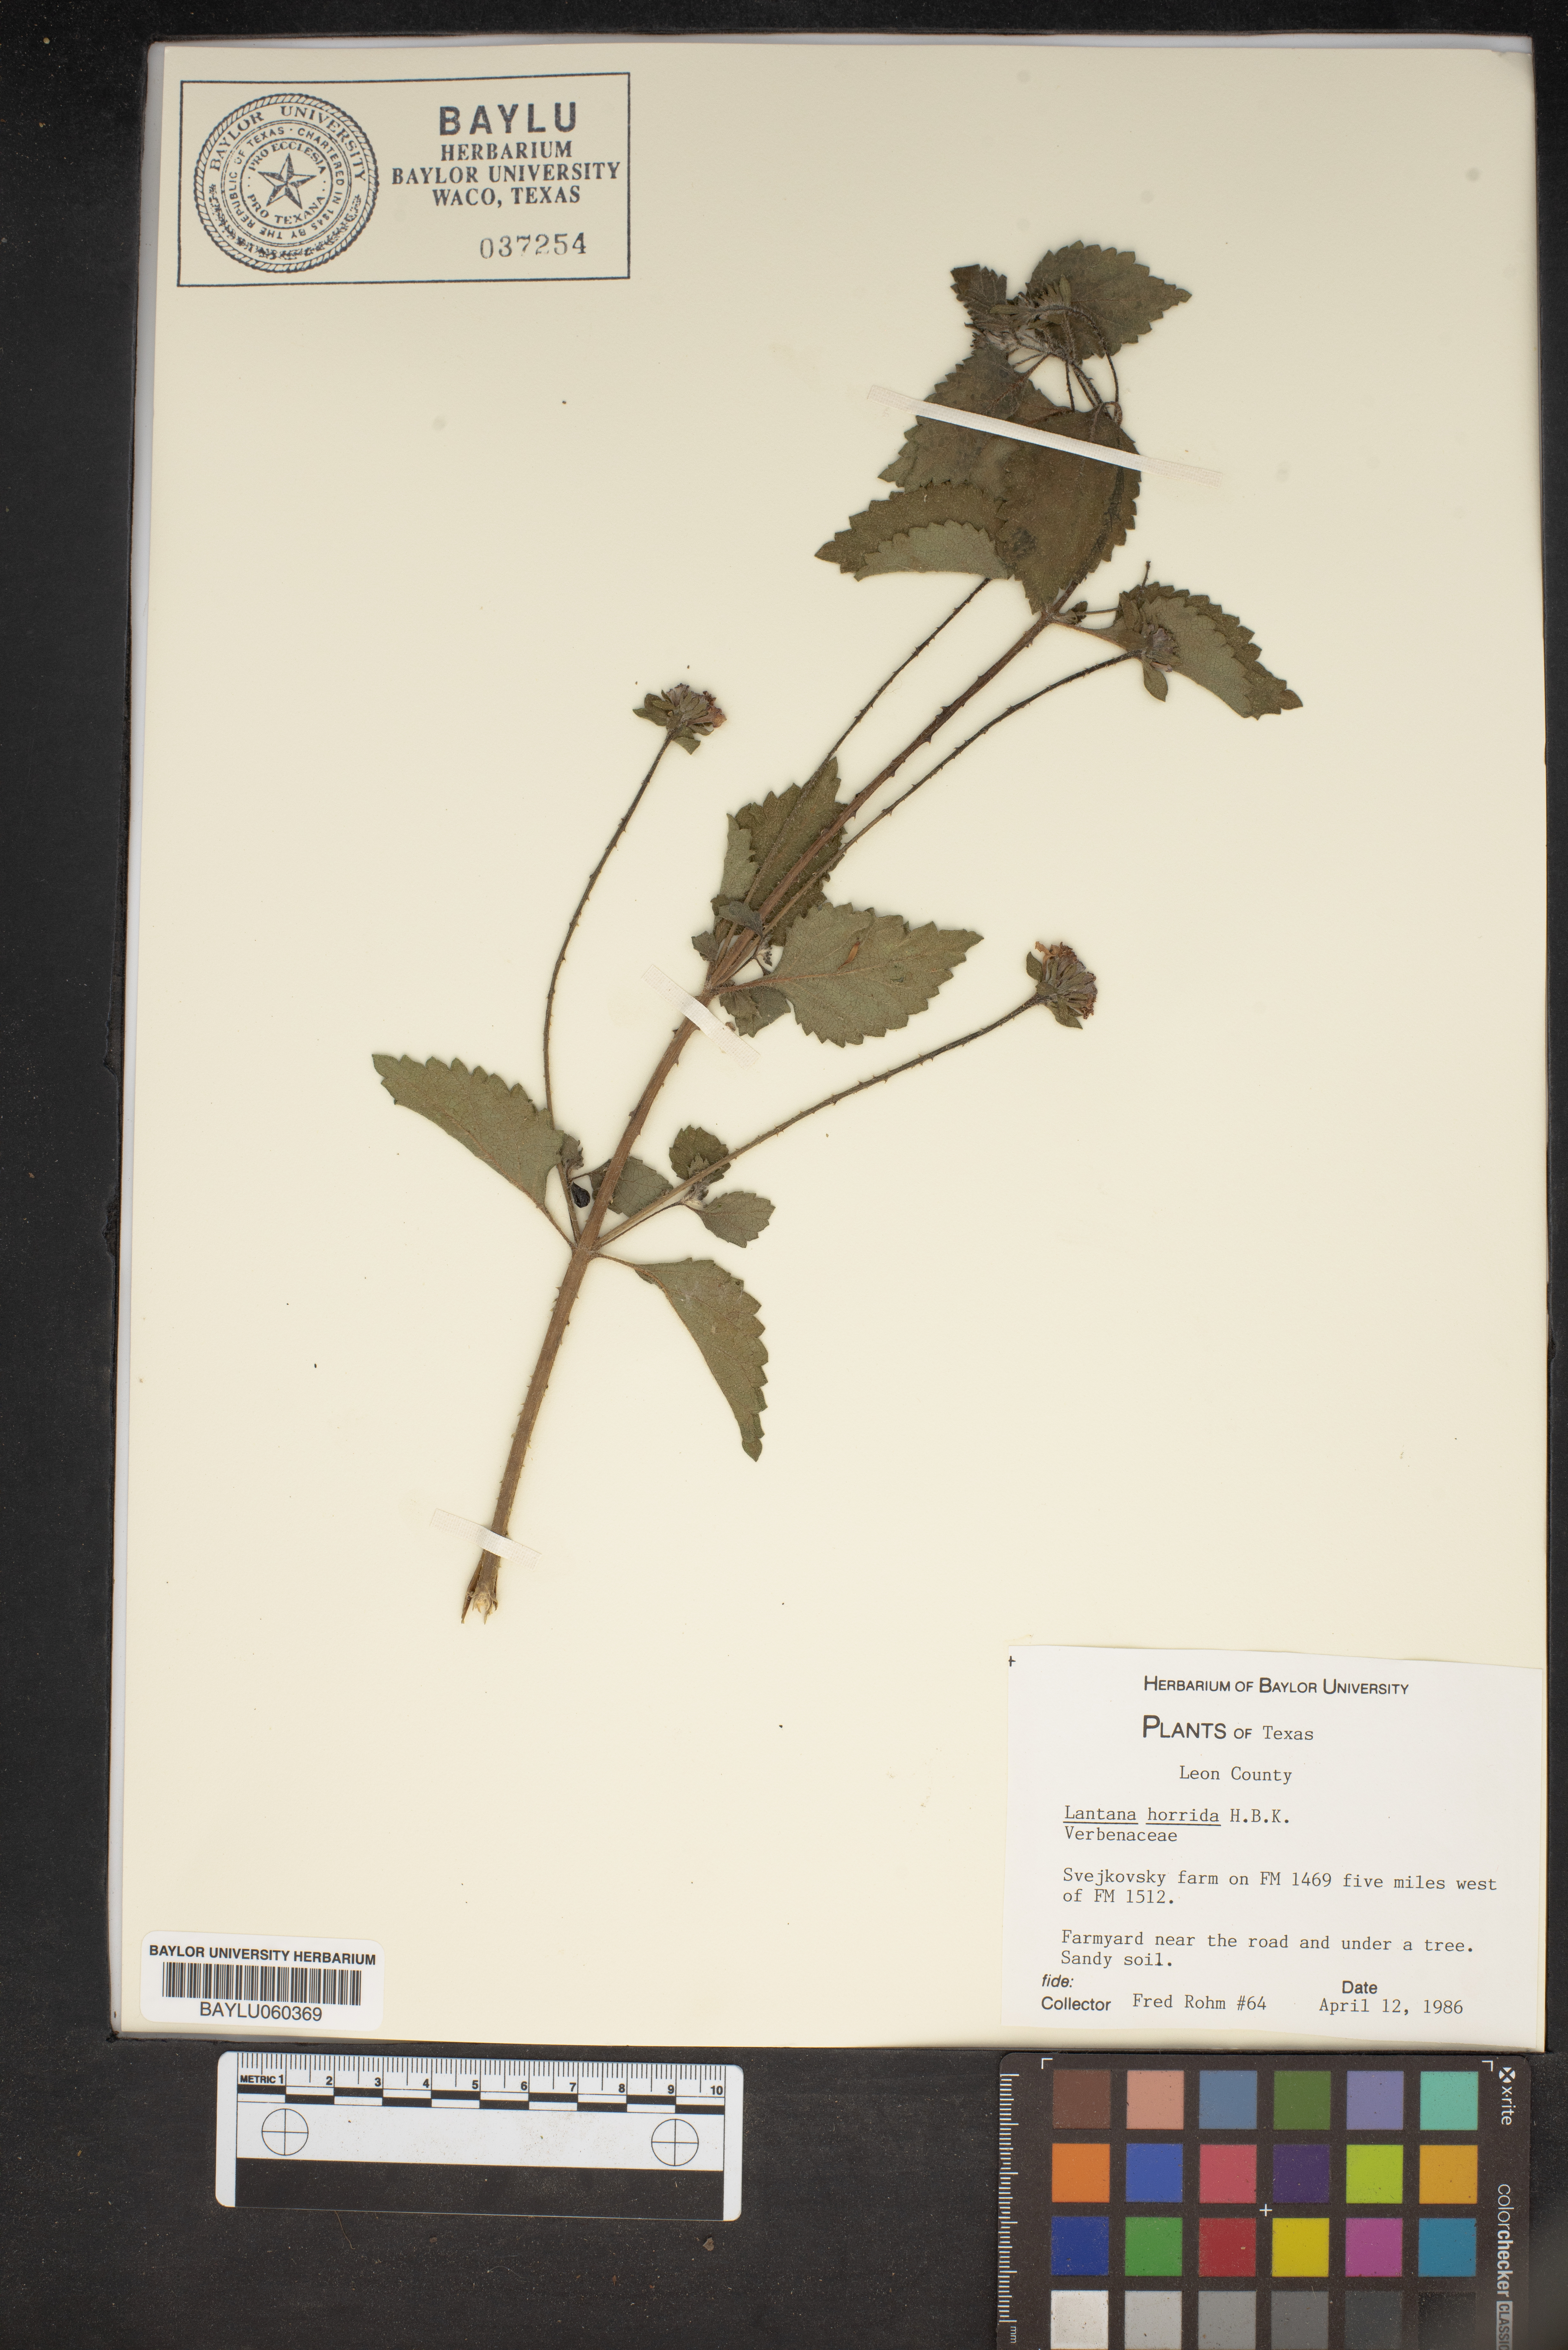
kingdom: Plantae
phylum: Tracheophyta
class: Magnoliopsida
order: Lamiales
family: Verbenaceae
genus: Lantana
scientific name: Lantana horrida
